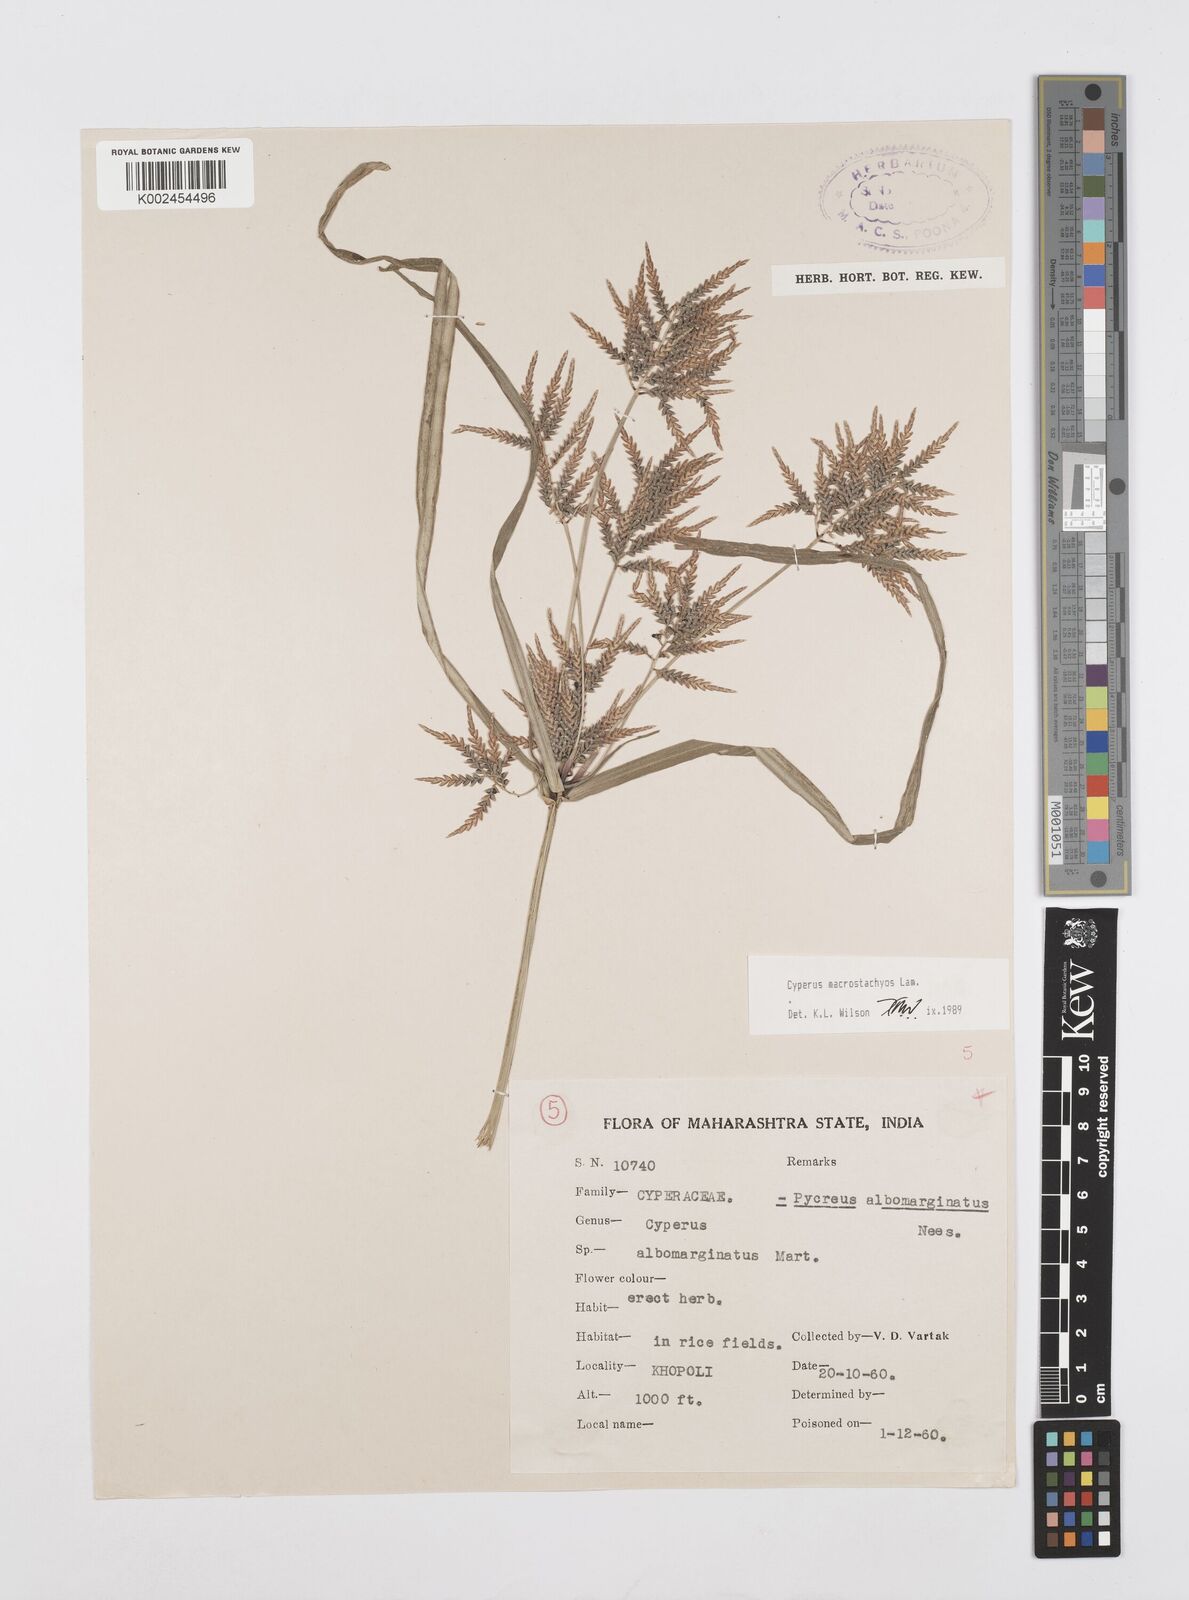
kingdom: Plantae
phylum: Tracheophyta
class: Liliopsida
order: Poales
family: Cyperaceae
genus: Cyperus
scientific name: Cyperus macrostachyos
